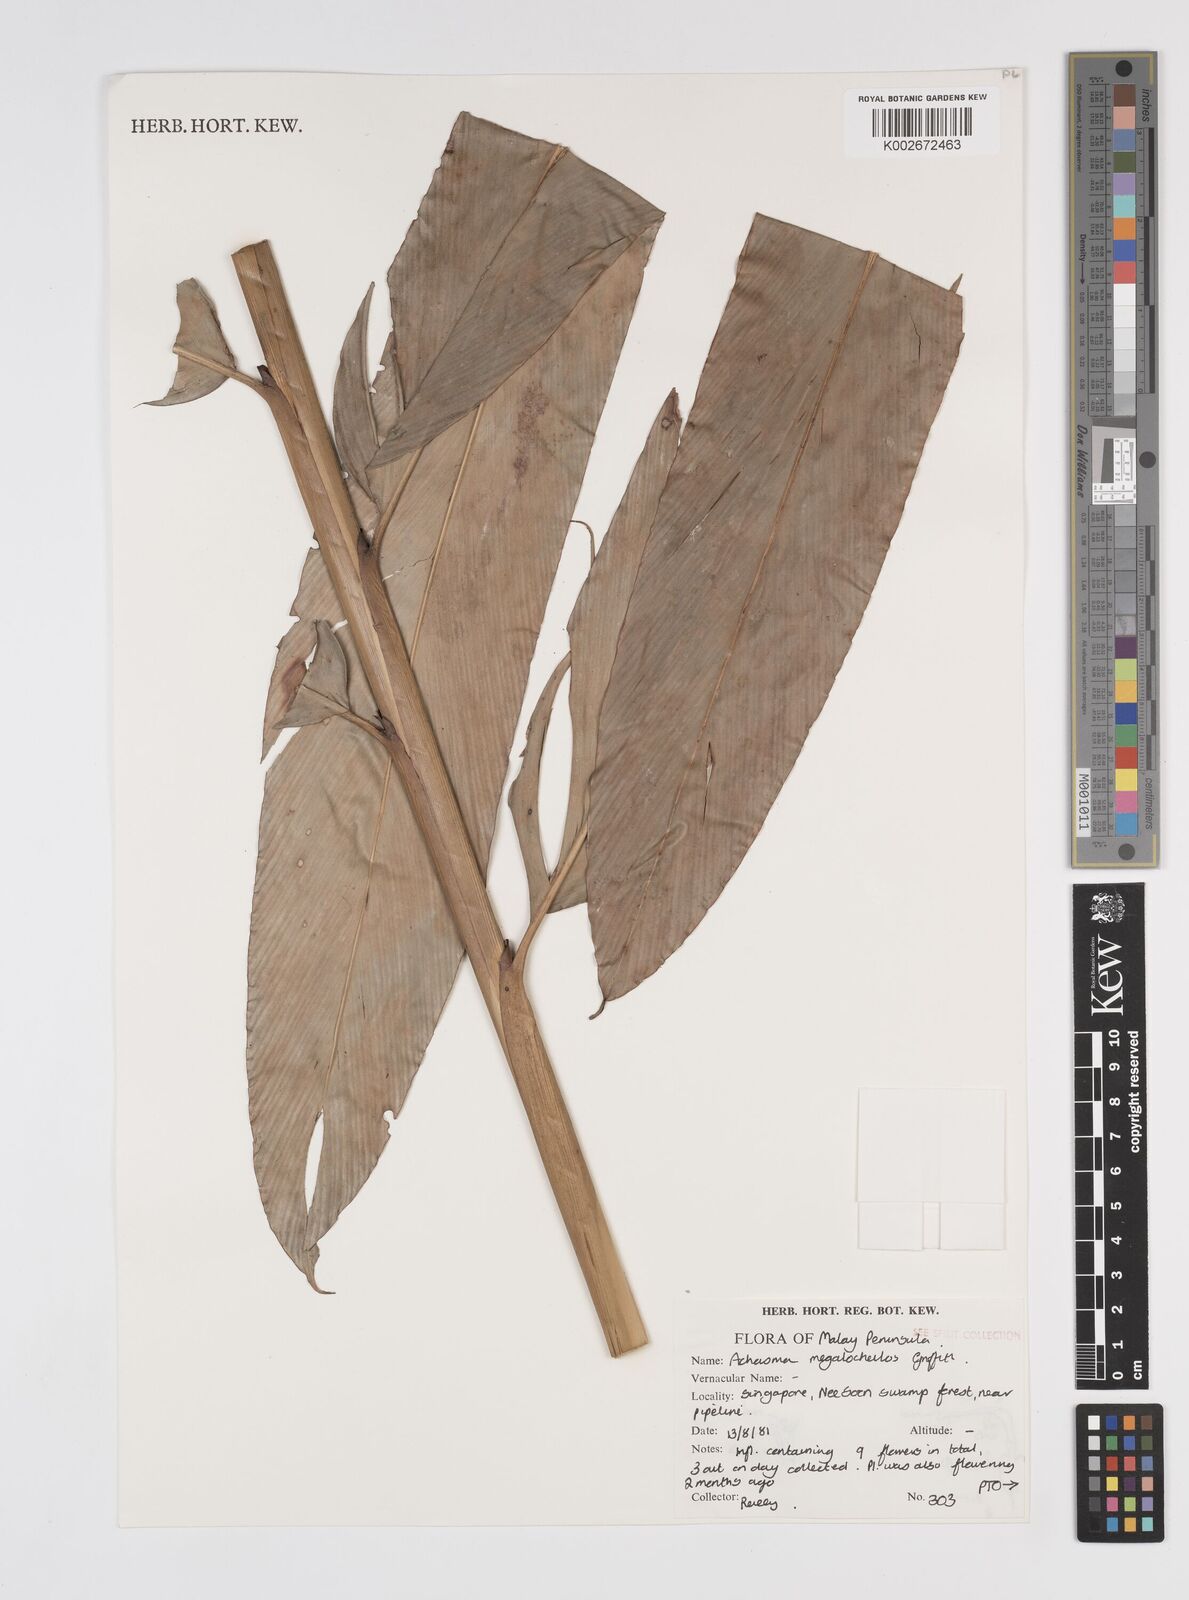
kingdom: Plantae
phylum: Tracheophyta
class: Liliopsida
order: Zingiberales
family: Zingiberaceae
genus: Etlingera
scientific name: Etlingera littoralis
